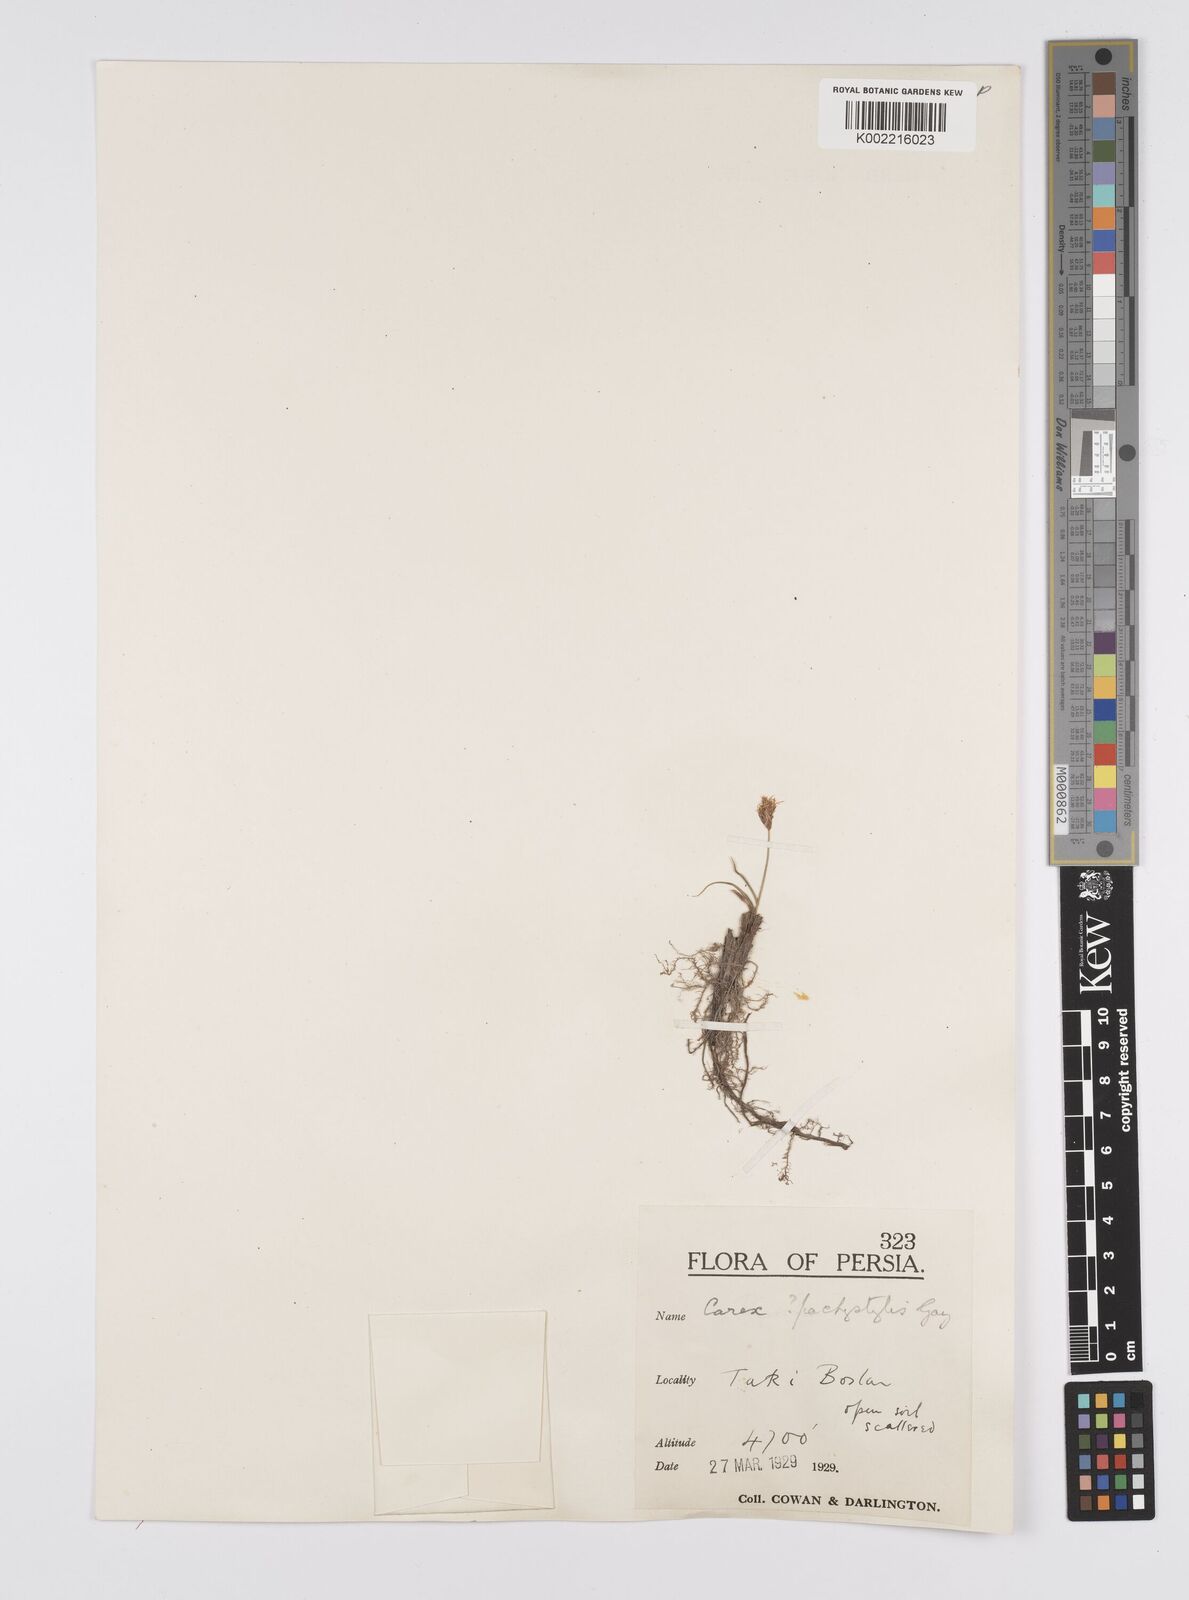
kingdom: Plantae
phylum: Tracheophyta
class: Liliopsida
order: Poales
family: Cyperaceae
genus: Carex
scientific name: Carex pachystylis
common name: Thick-stem sedge
